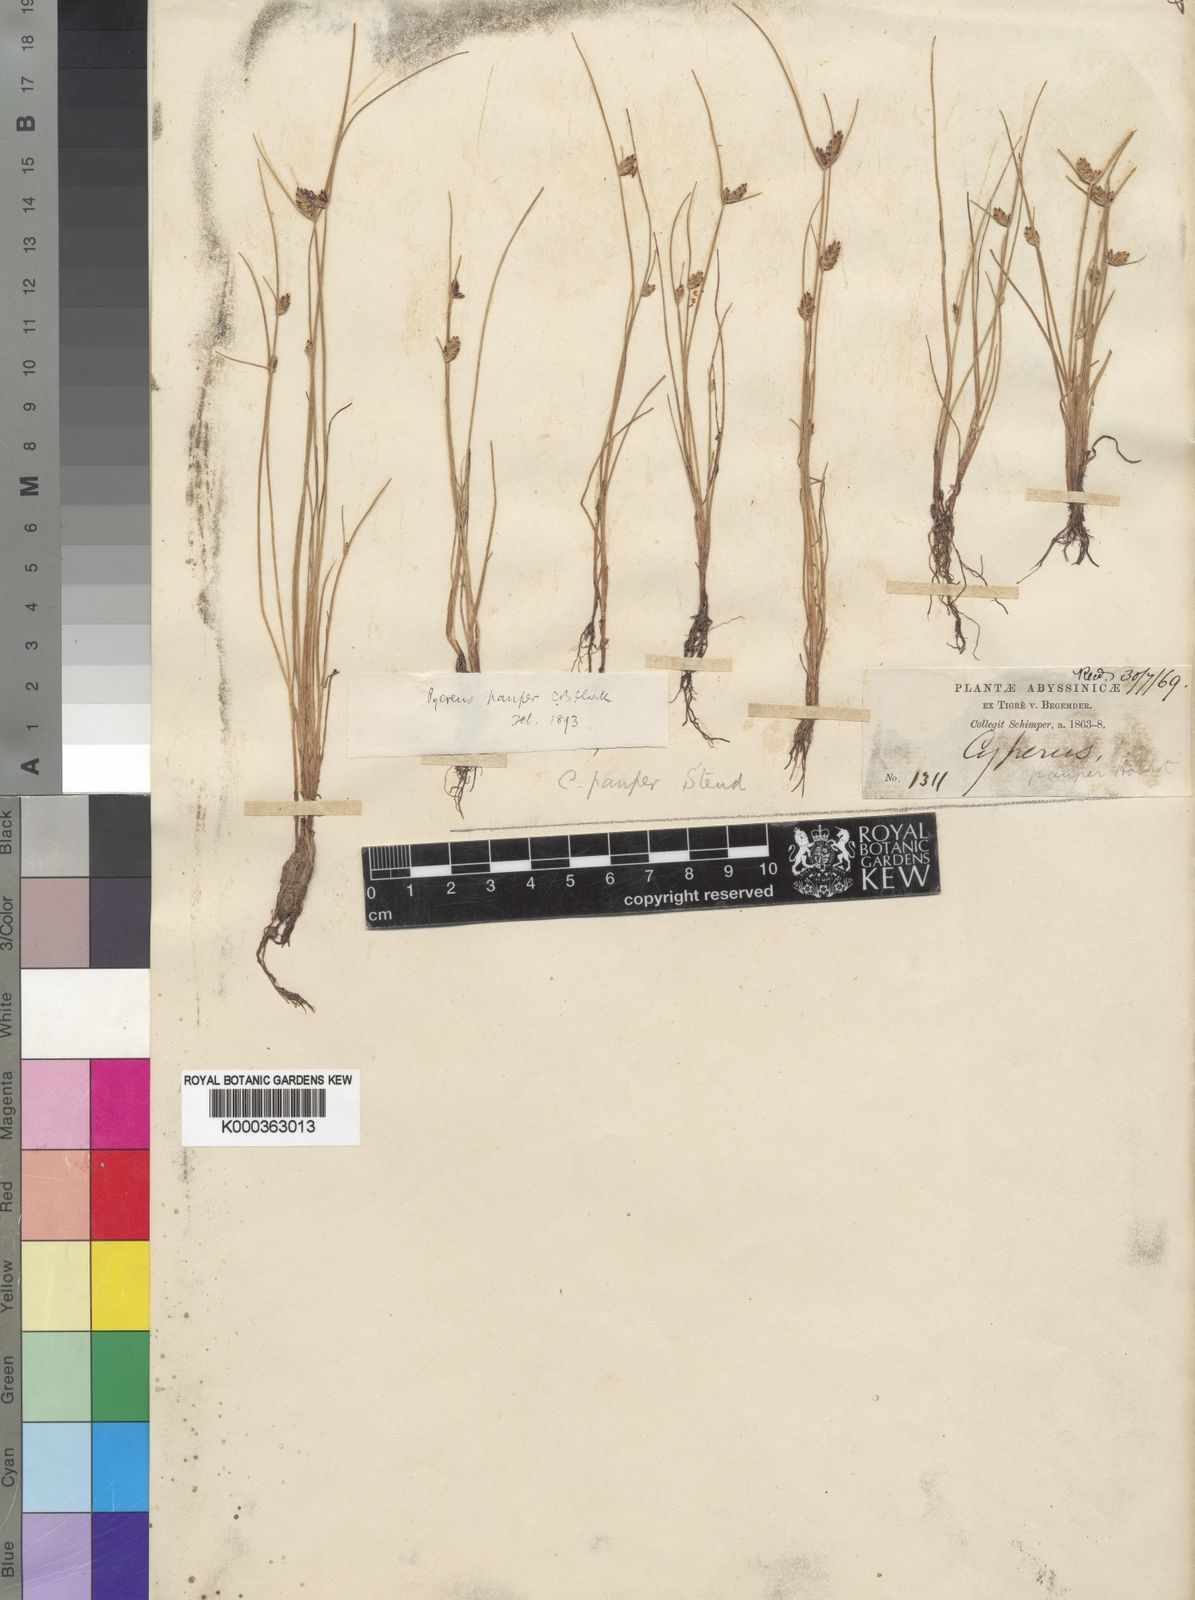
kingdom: Plantae
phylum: Tracheophyta
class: Liliopsida
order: Poales
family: Cyperaceae
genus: Cyperus
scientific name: Cyperus pauper
